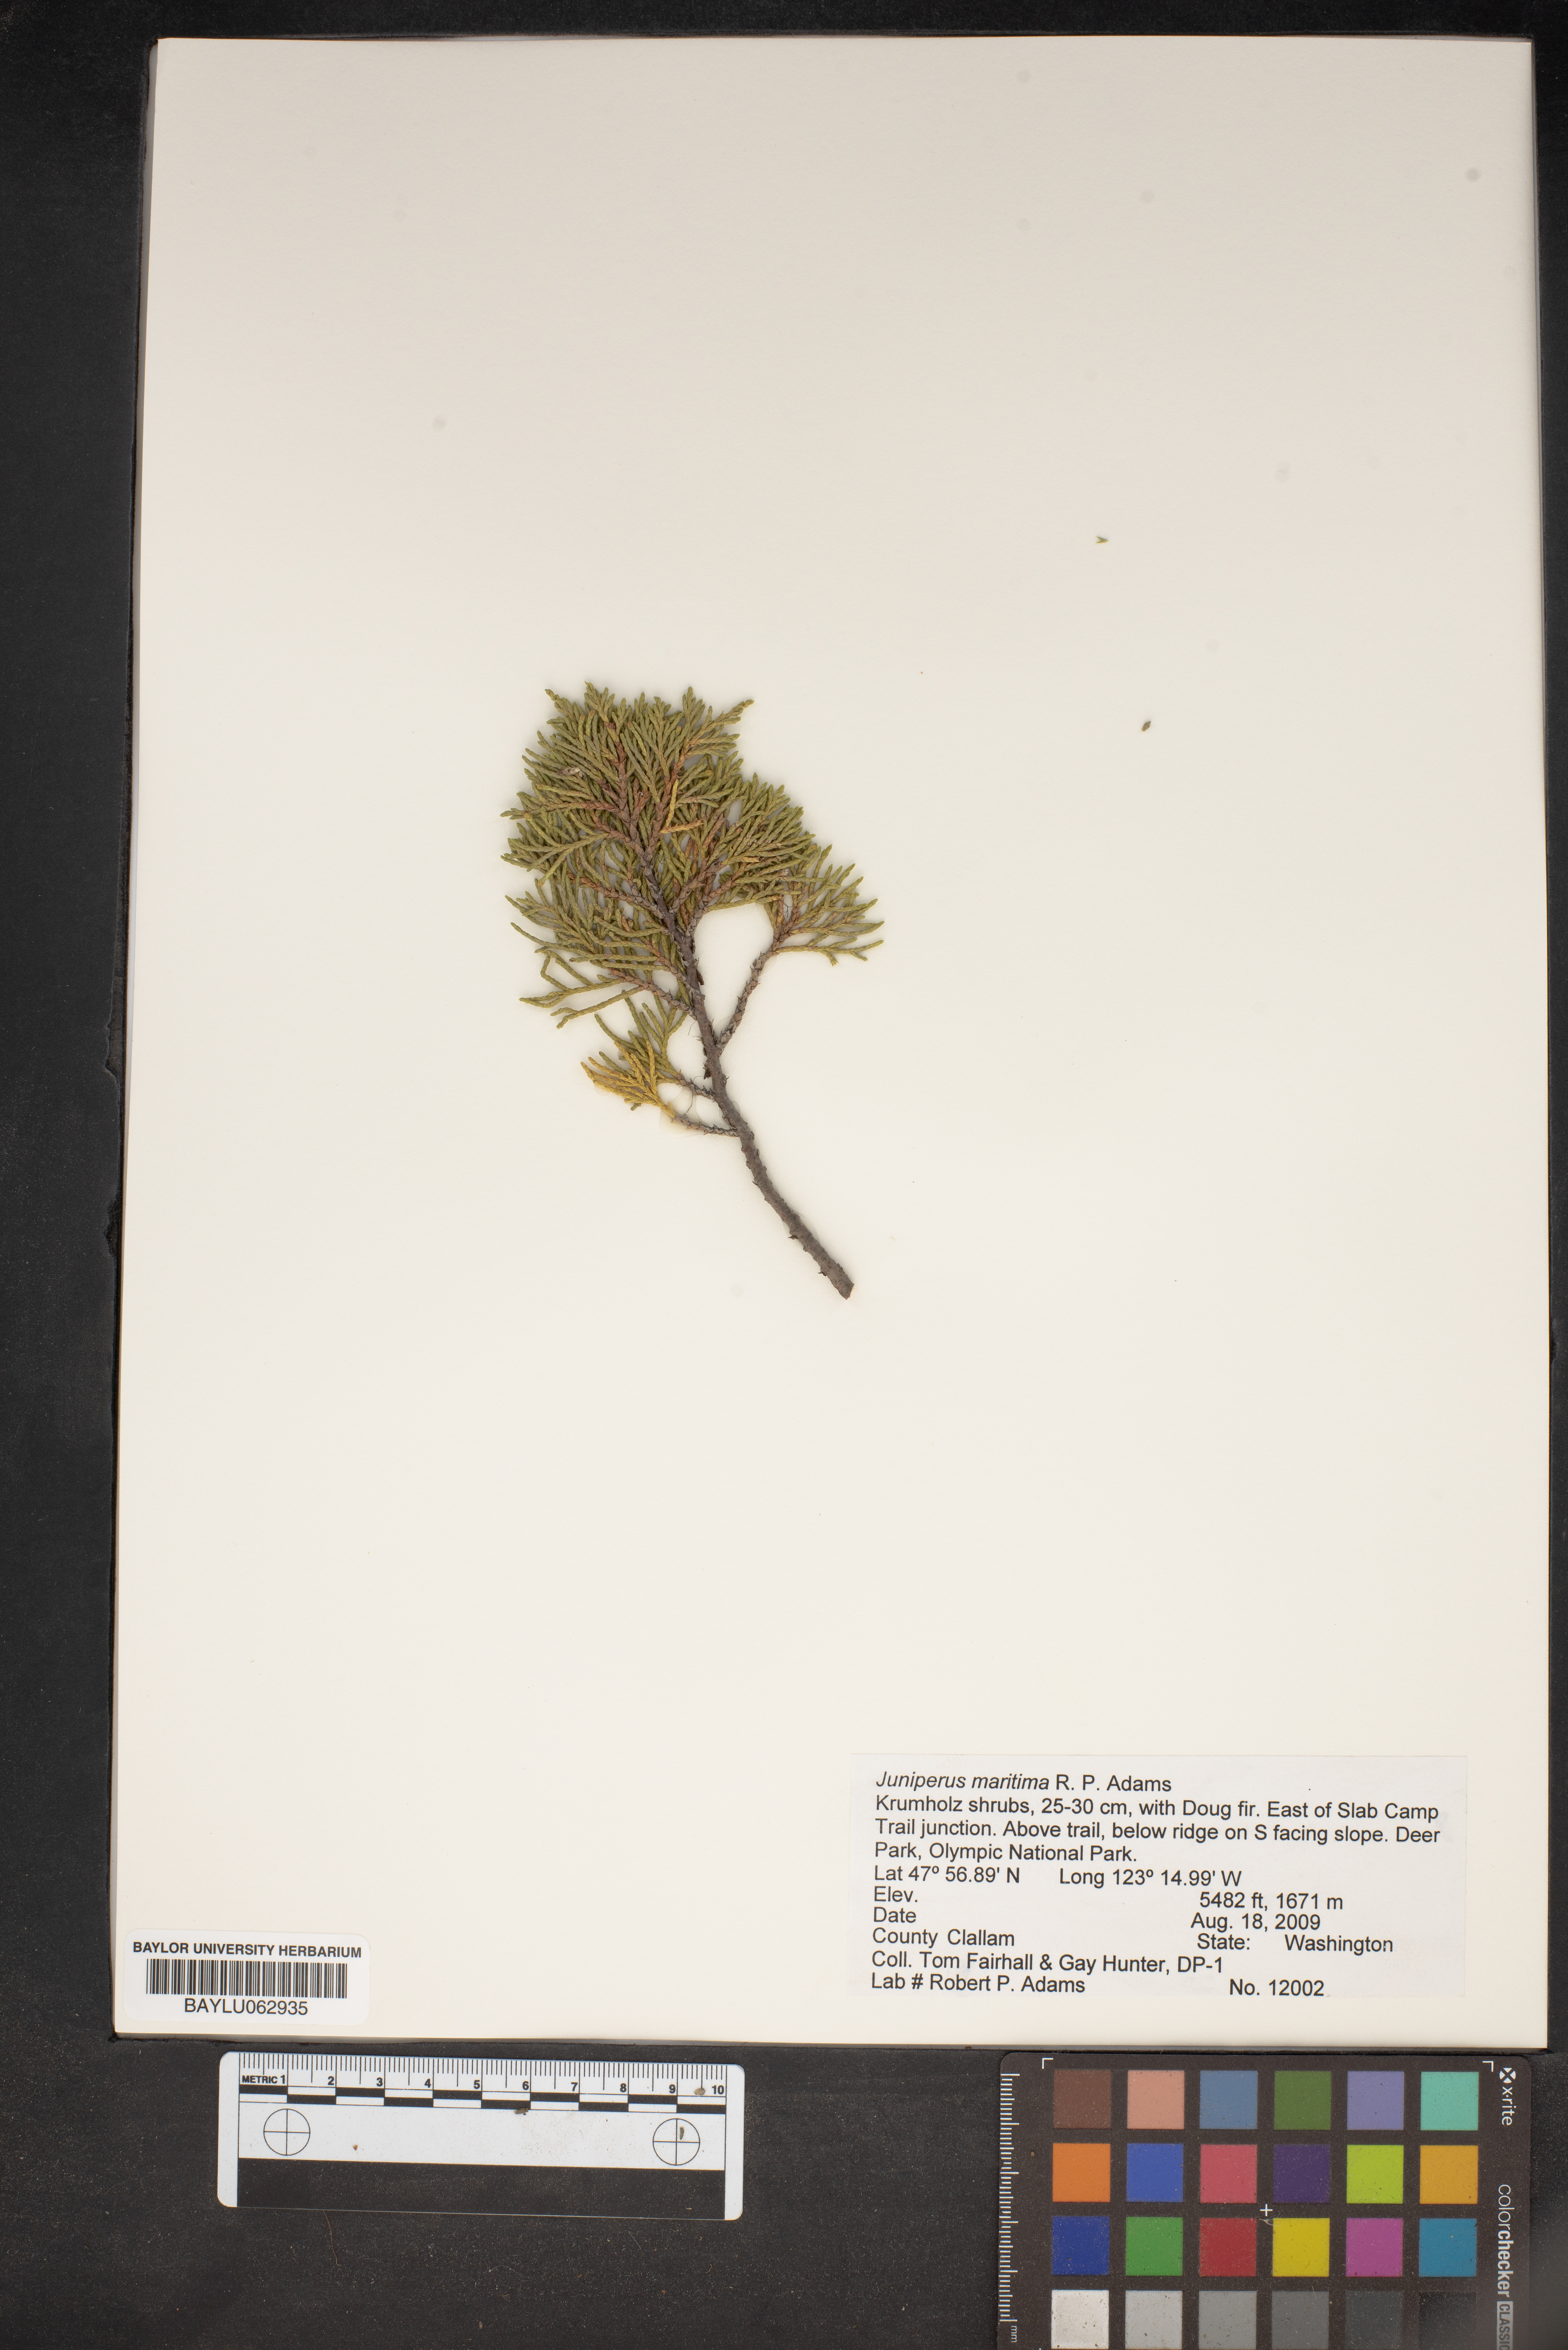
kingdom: Plantae
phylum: Tracheophyta
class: Pinopsida
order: Pinales
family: Cupressaceae
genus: Juniperus
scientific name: Juniperus scopulorum
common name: Rocky mountain juniper
